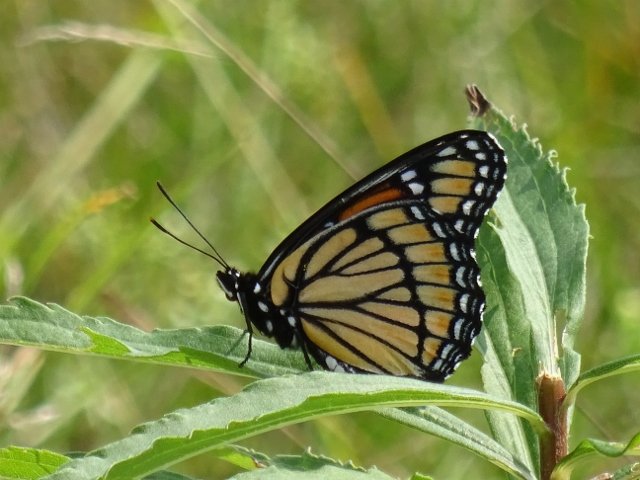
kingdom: Animalia
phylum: Arthropoda
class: Insecta
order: Lepidoptera
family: Nymphalidae
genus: Limenitis
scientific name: Limenitis archippus
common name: Viceroy
